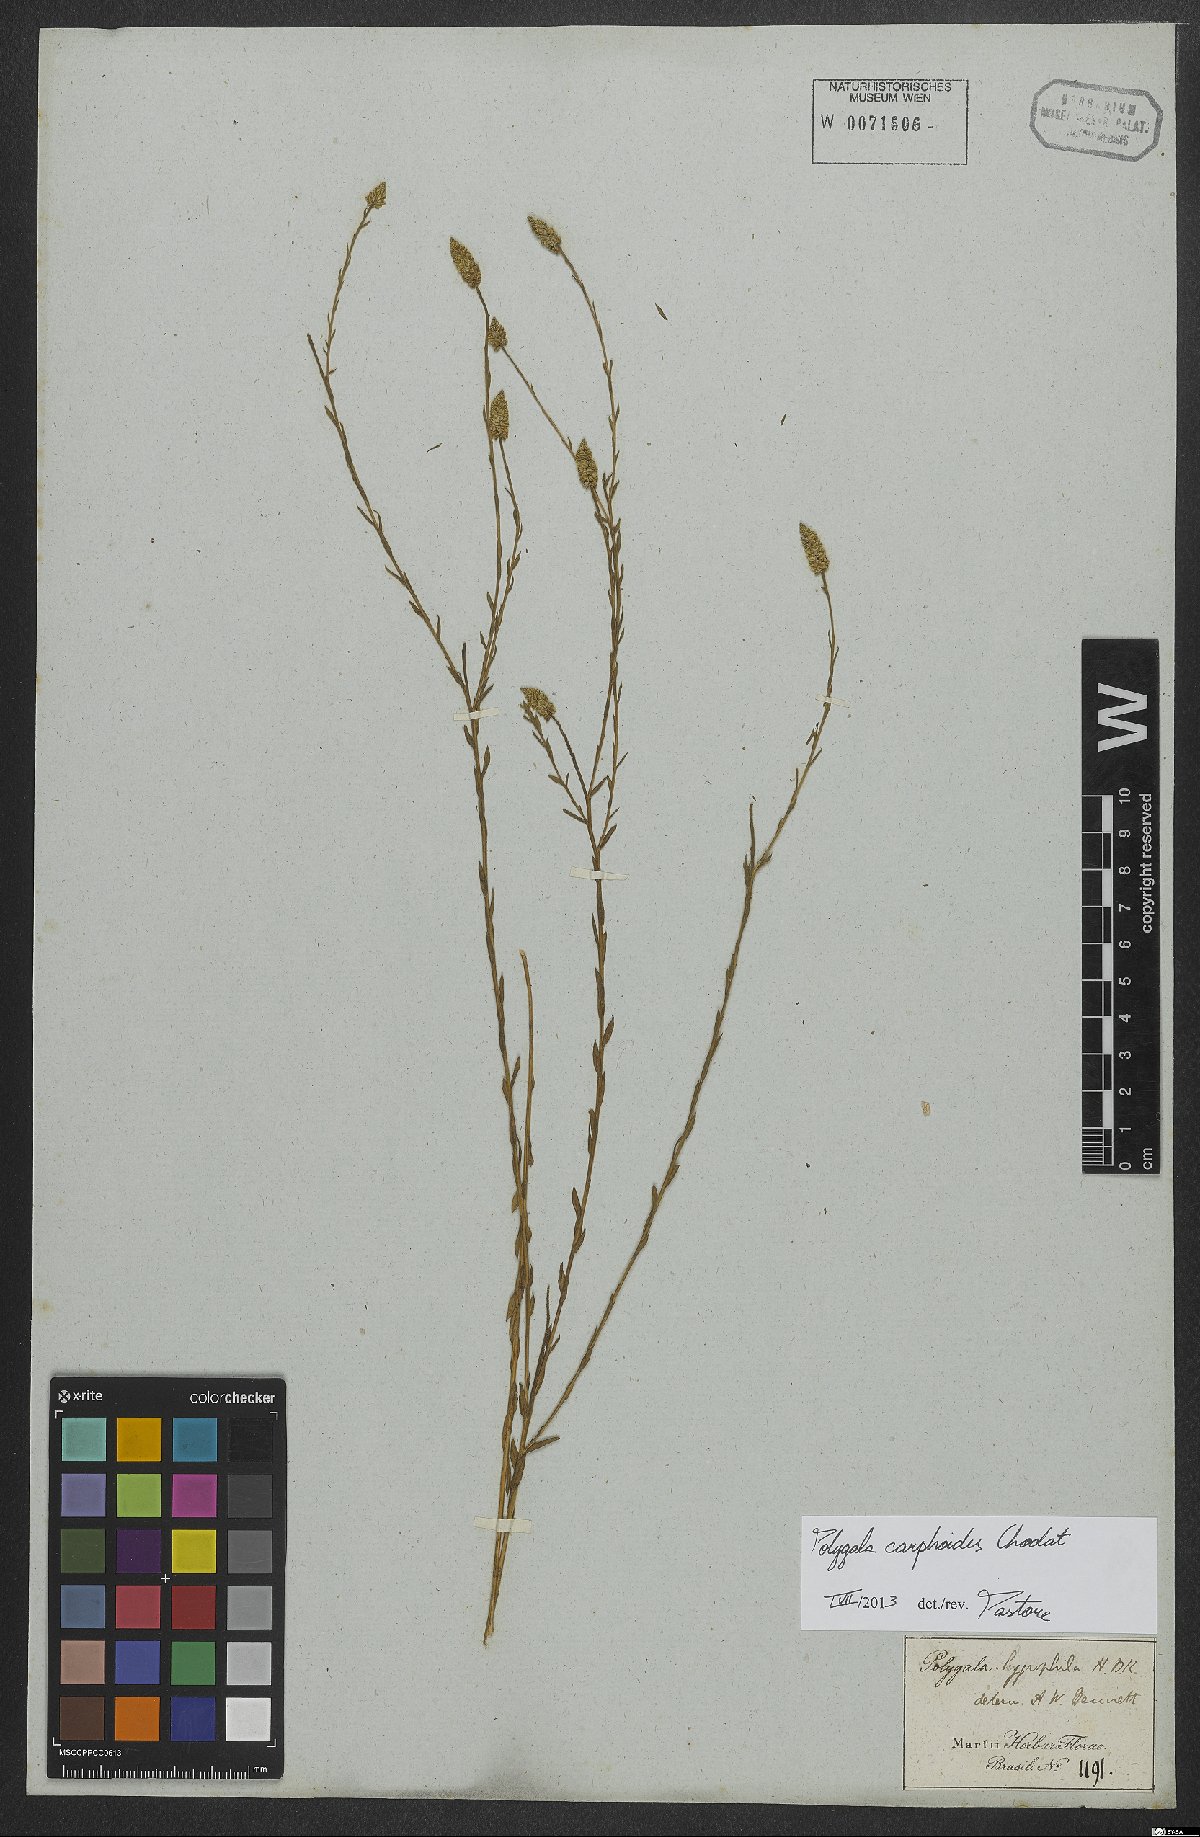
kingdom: Plantae
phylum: Tracheophyta
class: Magnoliopsida
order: Fabales
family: Polygalaceae
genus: Polygala
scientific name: Polygala carphoides
